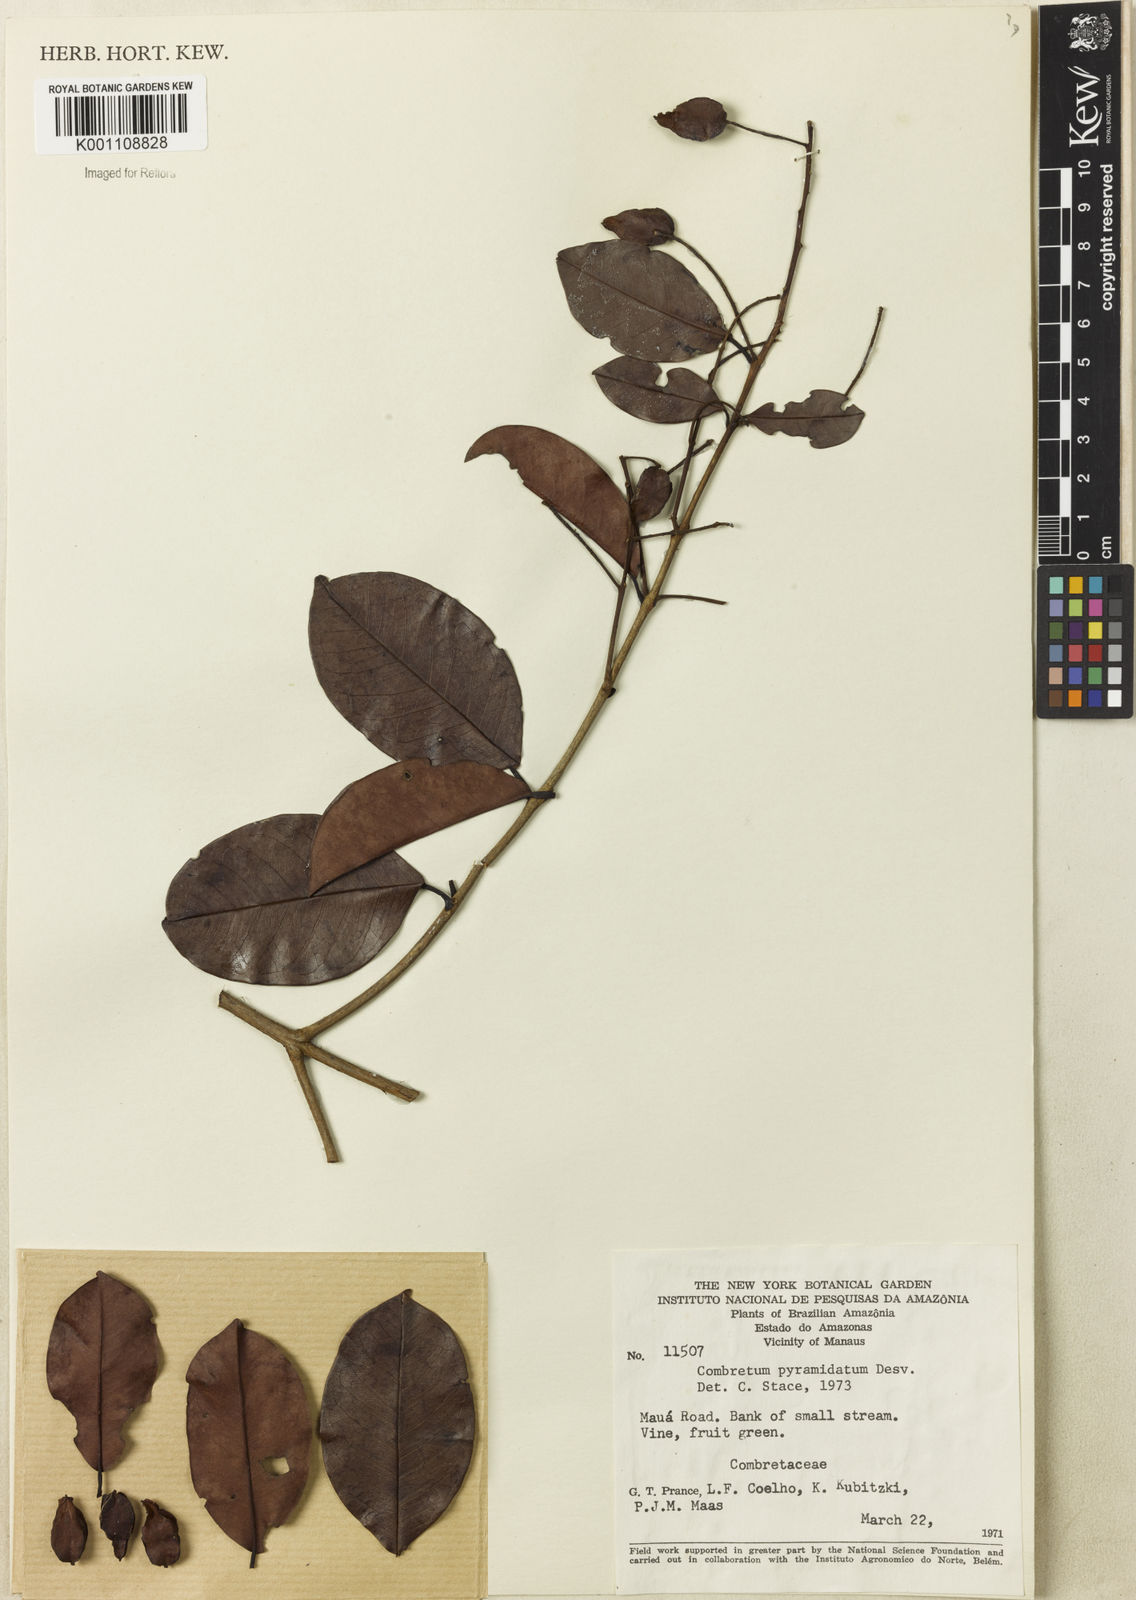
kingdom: Plantae
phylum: Tracheophyta
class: Magnoliopsida
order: Myrtales
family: Combretaceae
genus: Combretum
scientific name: Combretum pyramidatum
